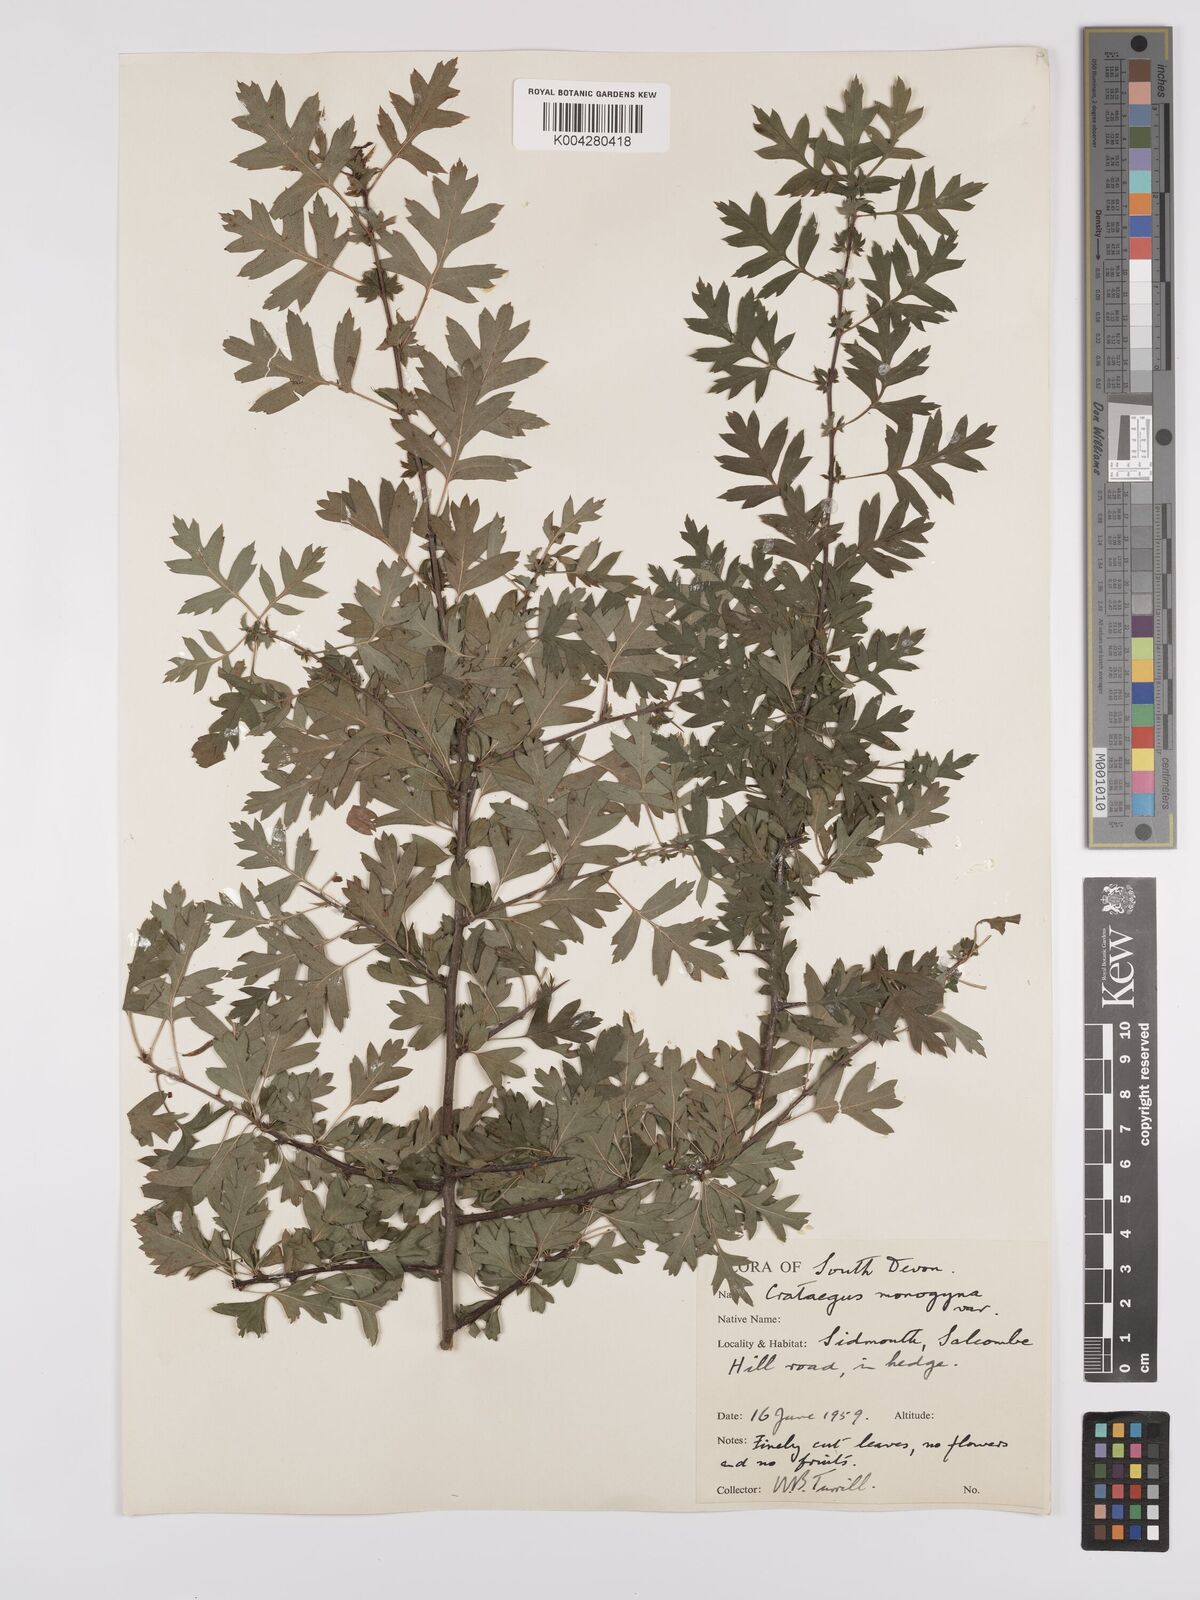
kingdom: Plantae
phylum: Tracheophyta
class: Magnoliopsida
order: Rosales
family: Rosaceae
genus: Crataegus
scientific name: Crataegus monogyna
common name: Hawthorn
